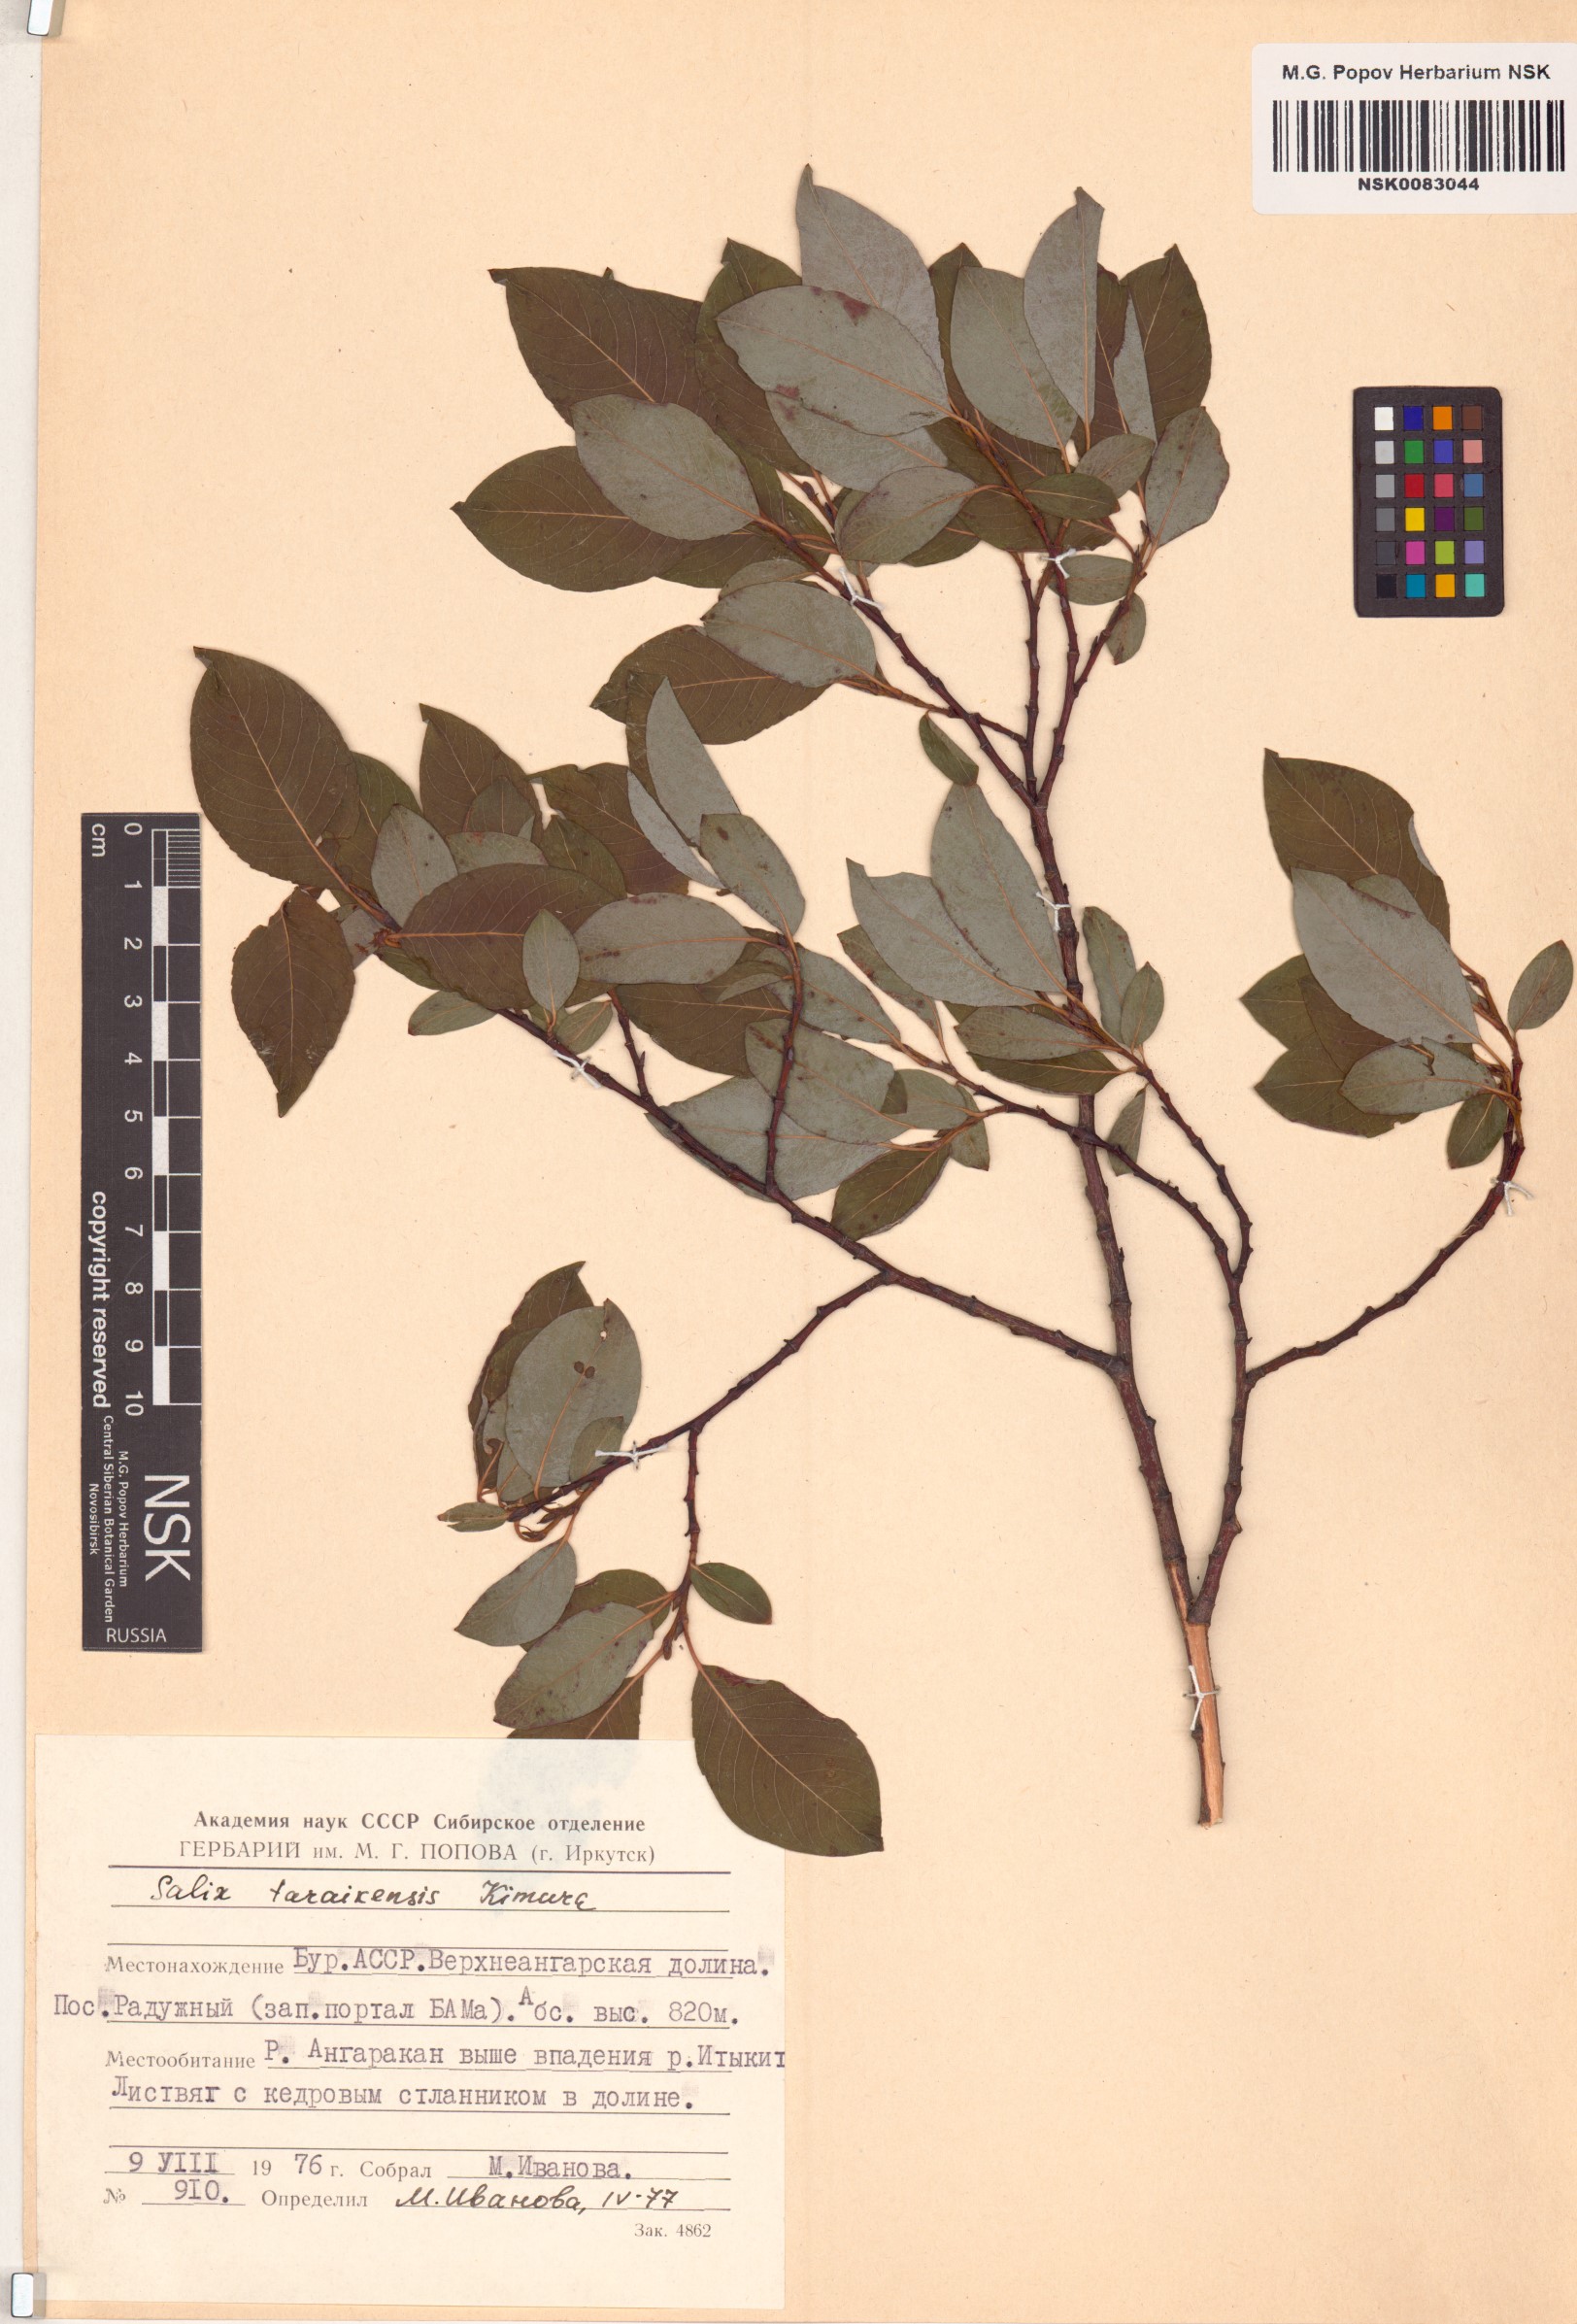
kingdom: Plantae
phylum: Tracheophyta
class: Magnoliopsida
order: Malpighiales
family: Salicaceae
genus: Salix
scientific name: Salix taraikensis
